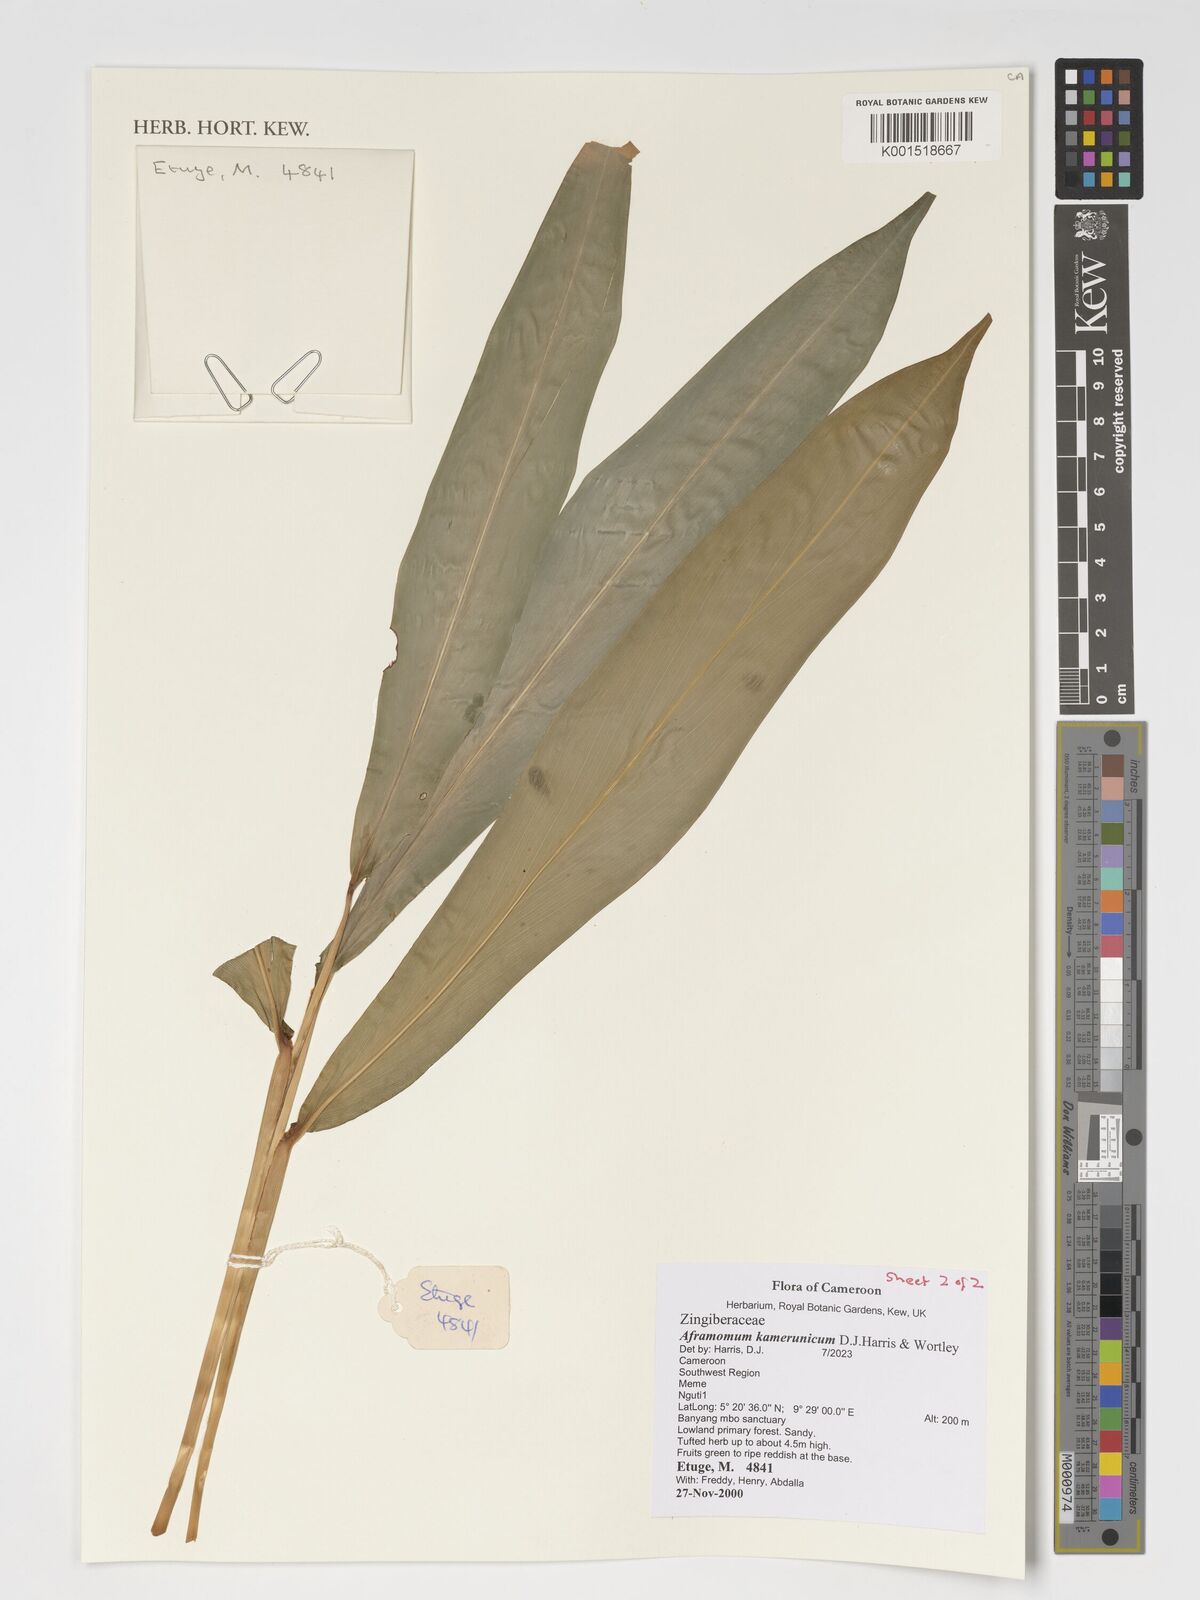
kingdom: Plantae
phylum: Tracheophyta
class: Liliopsida
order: Zingiberales
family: Zingiberaceae
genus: Aframomum
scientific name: Aframomum kamerunicum
